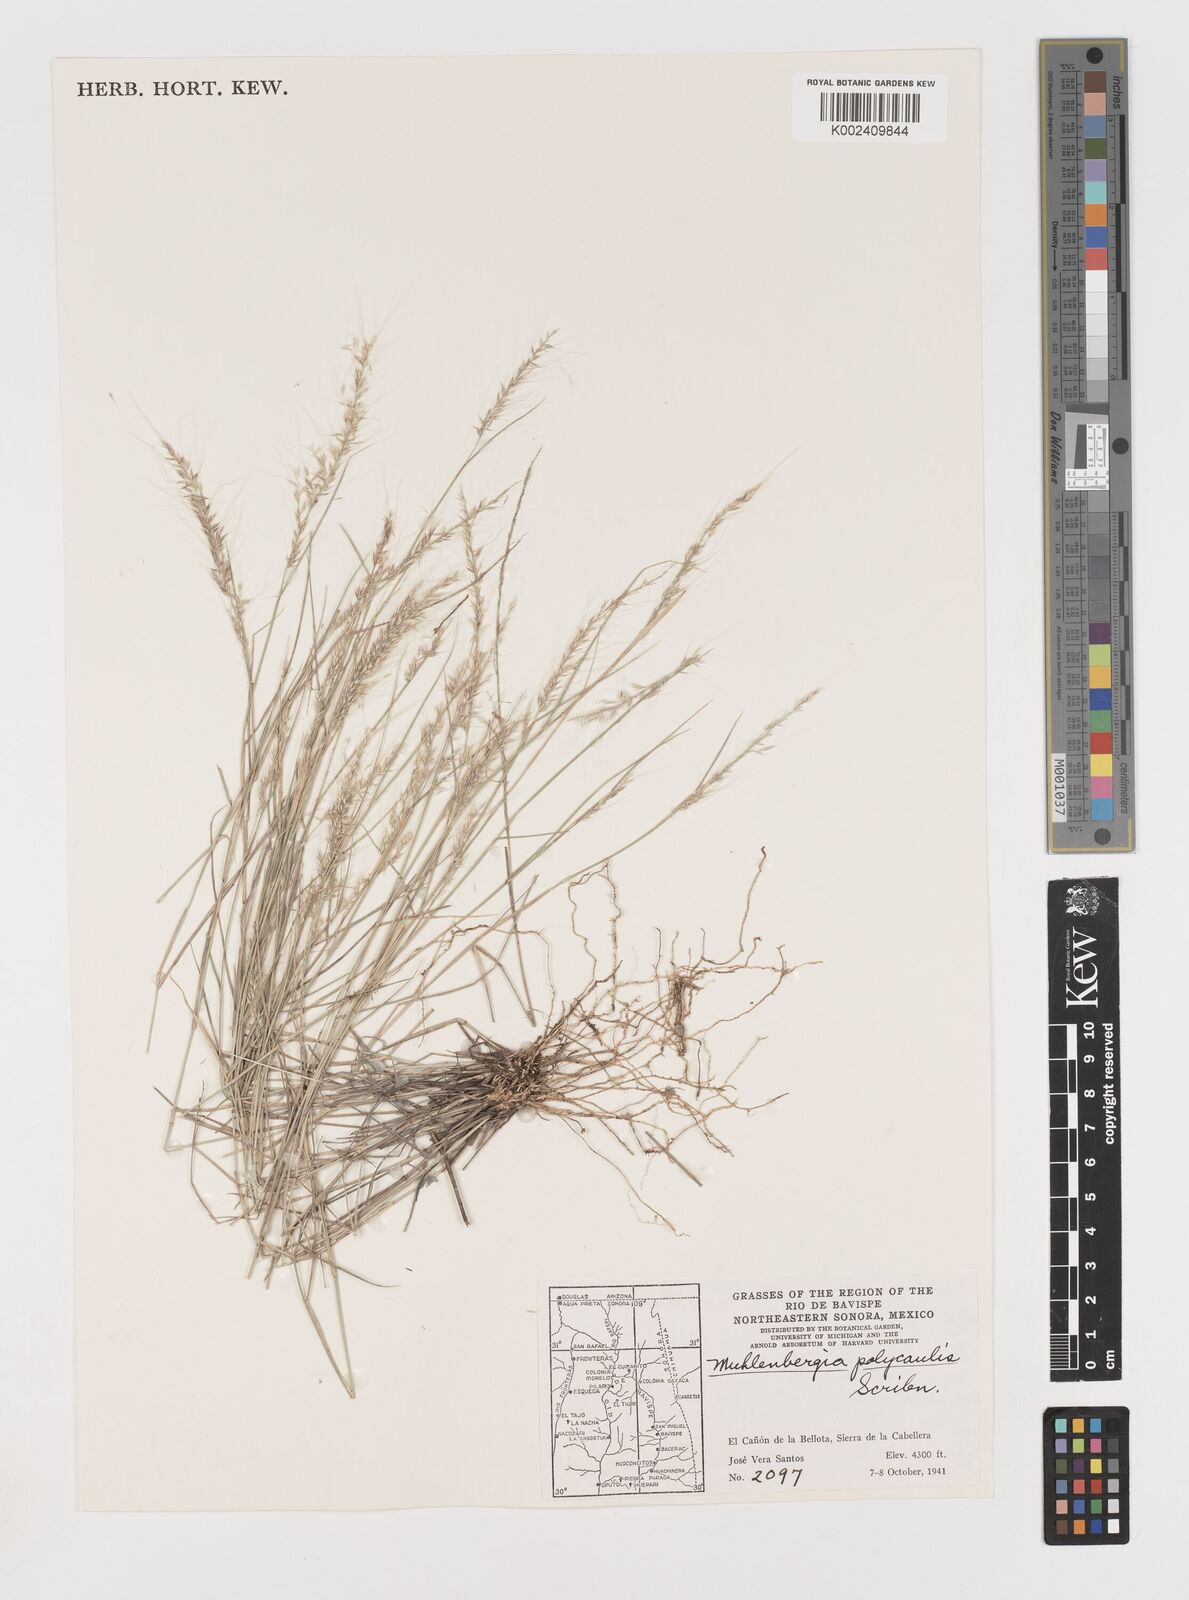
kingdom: Plantae
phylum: Tracheophyta
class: Liliopsida
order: Poales
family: Poaceae
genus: Muhlenbergia
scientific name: Muhlenbergia polycaulis
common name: Cliff muhly
